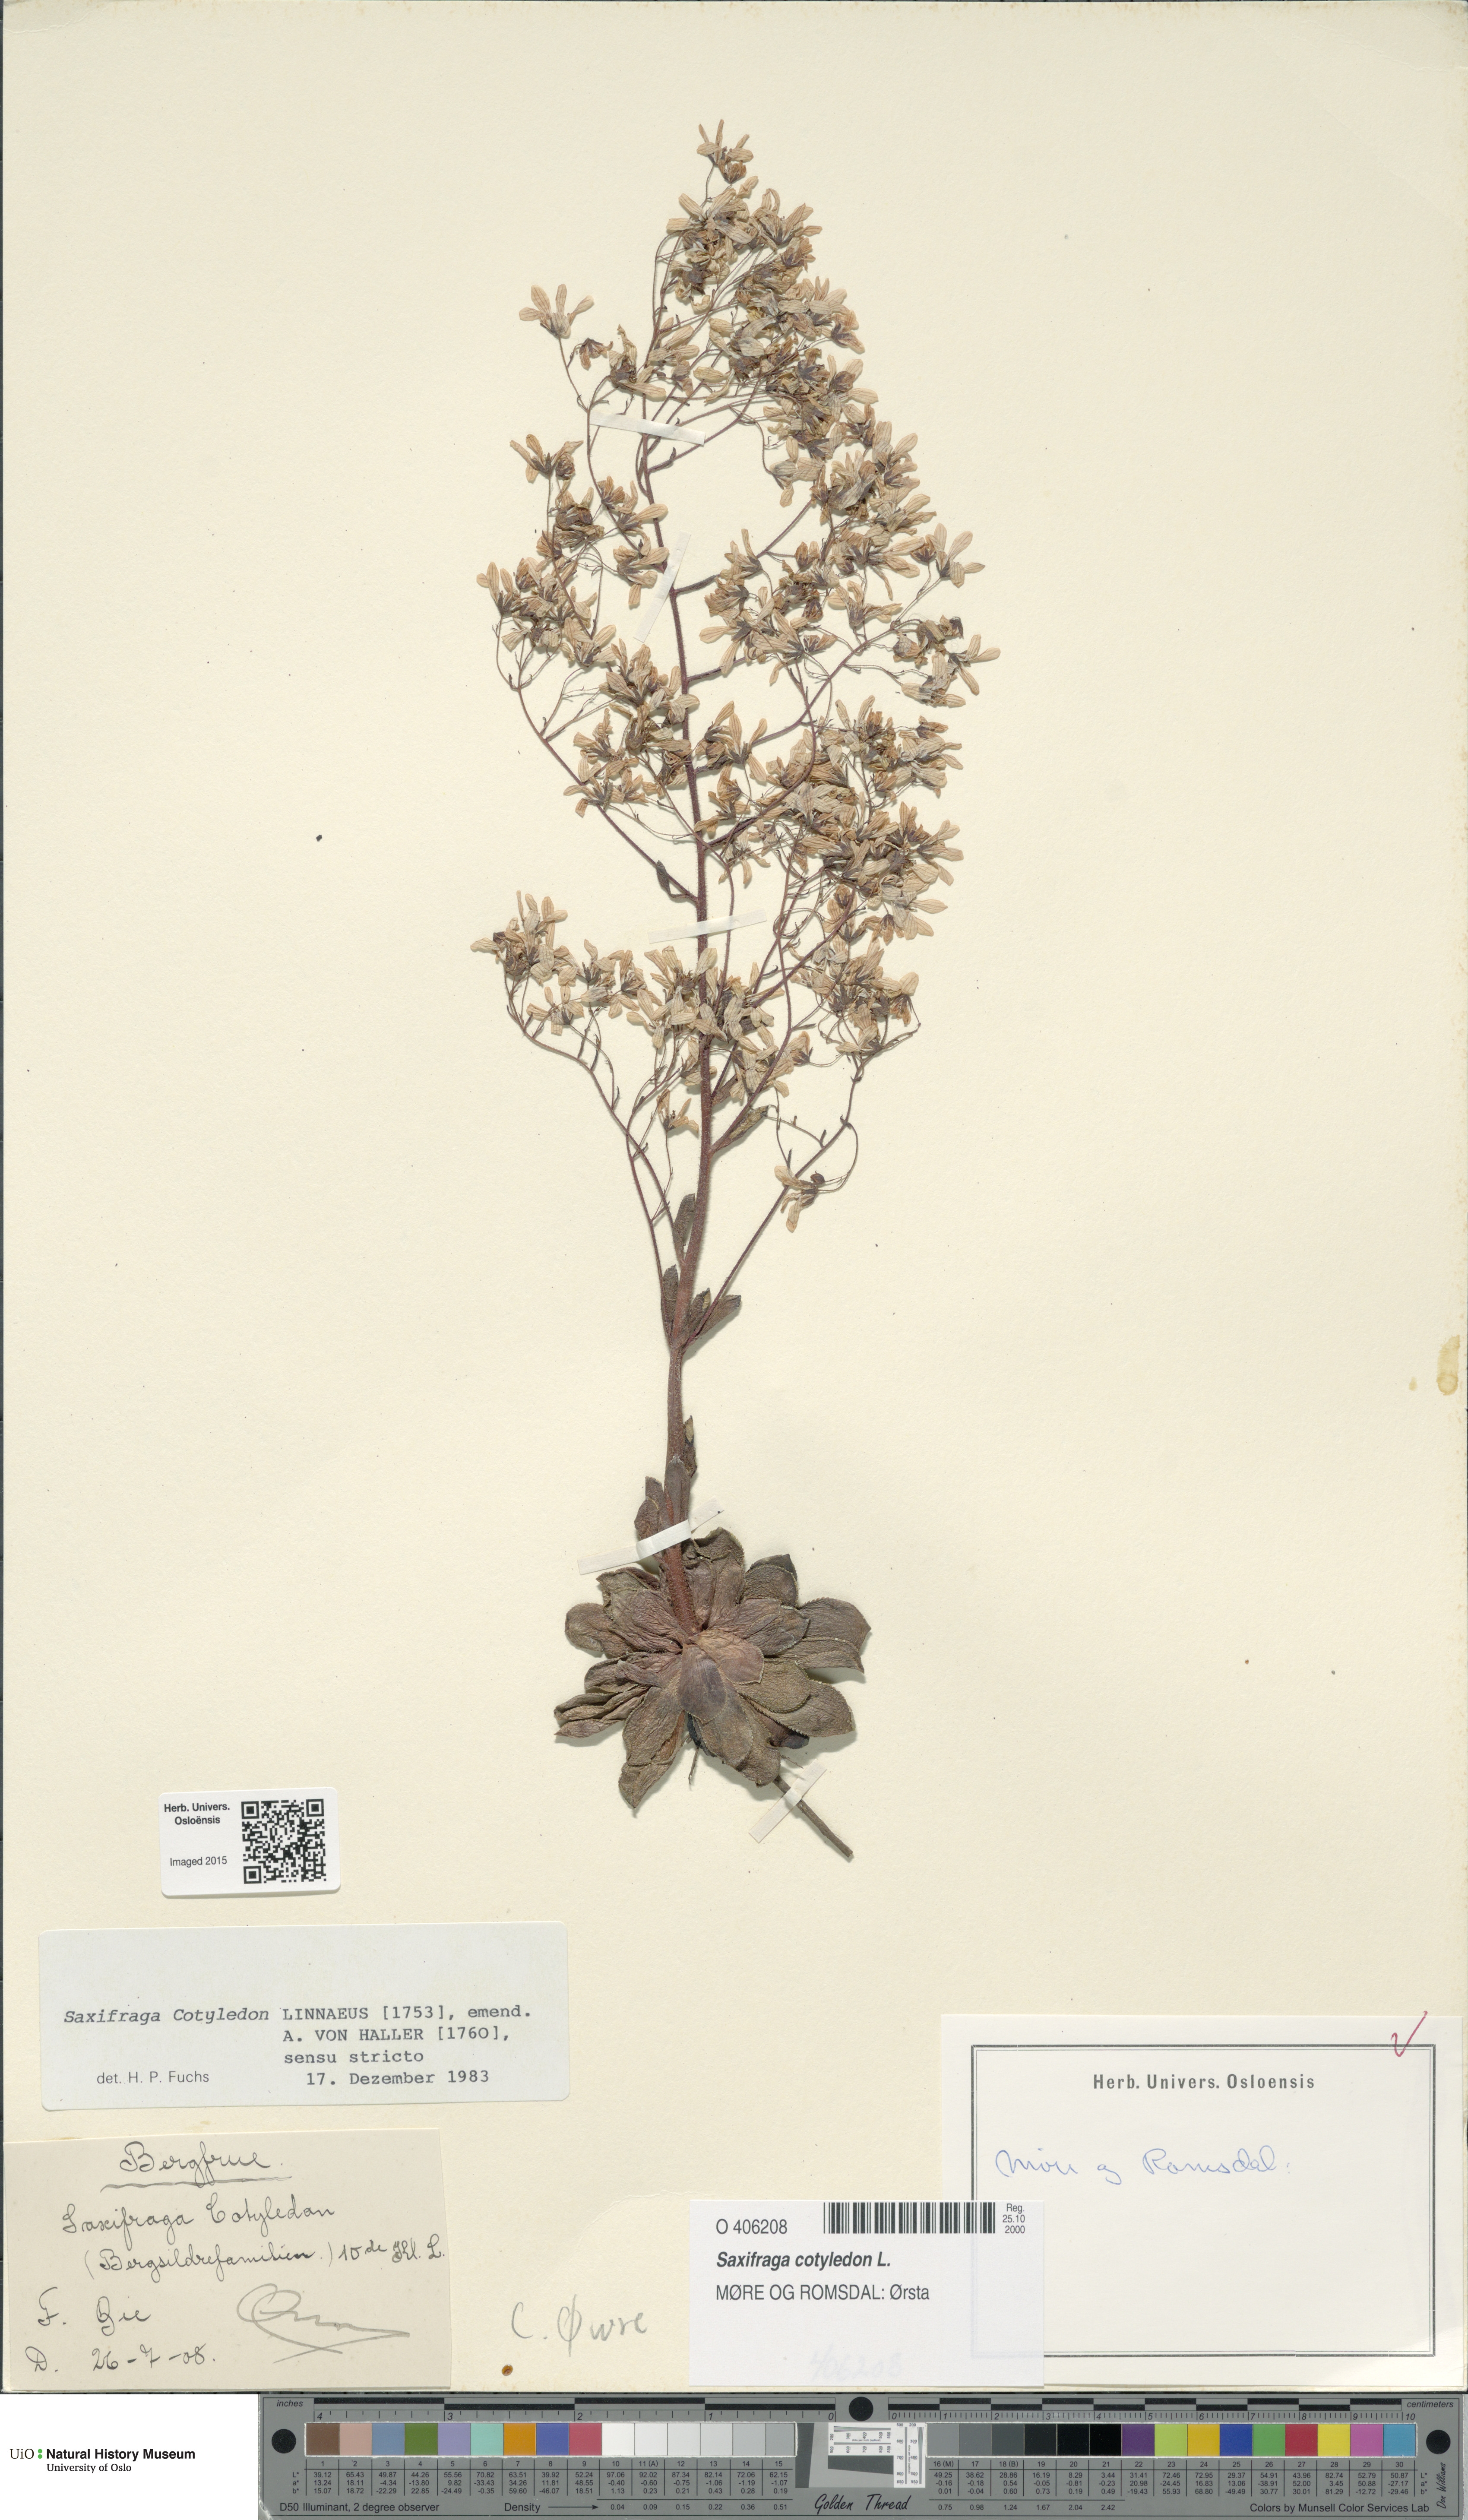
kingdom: Plantae
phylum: Tracheophyta
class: Magnoliopsida
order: Saxifragales
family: Saxifragaceae
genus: Saxifraga
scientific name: Saxifraga cotyledon
